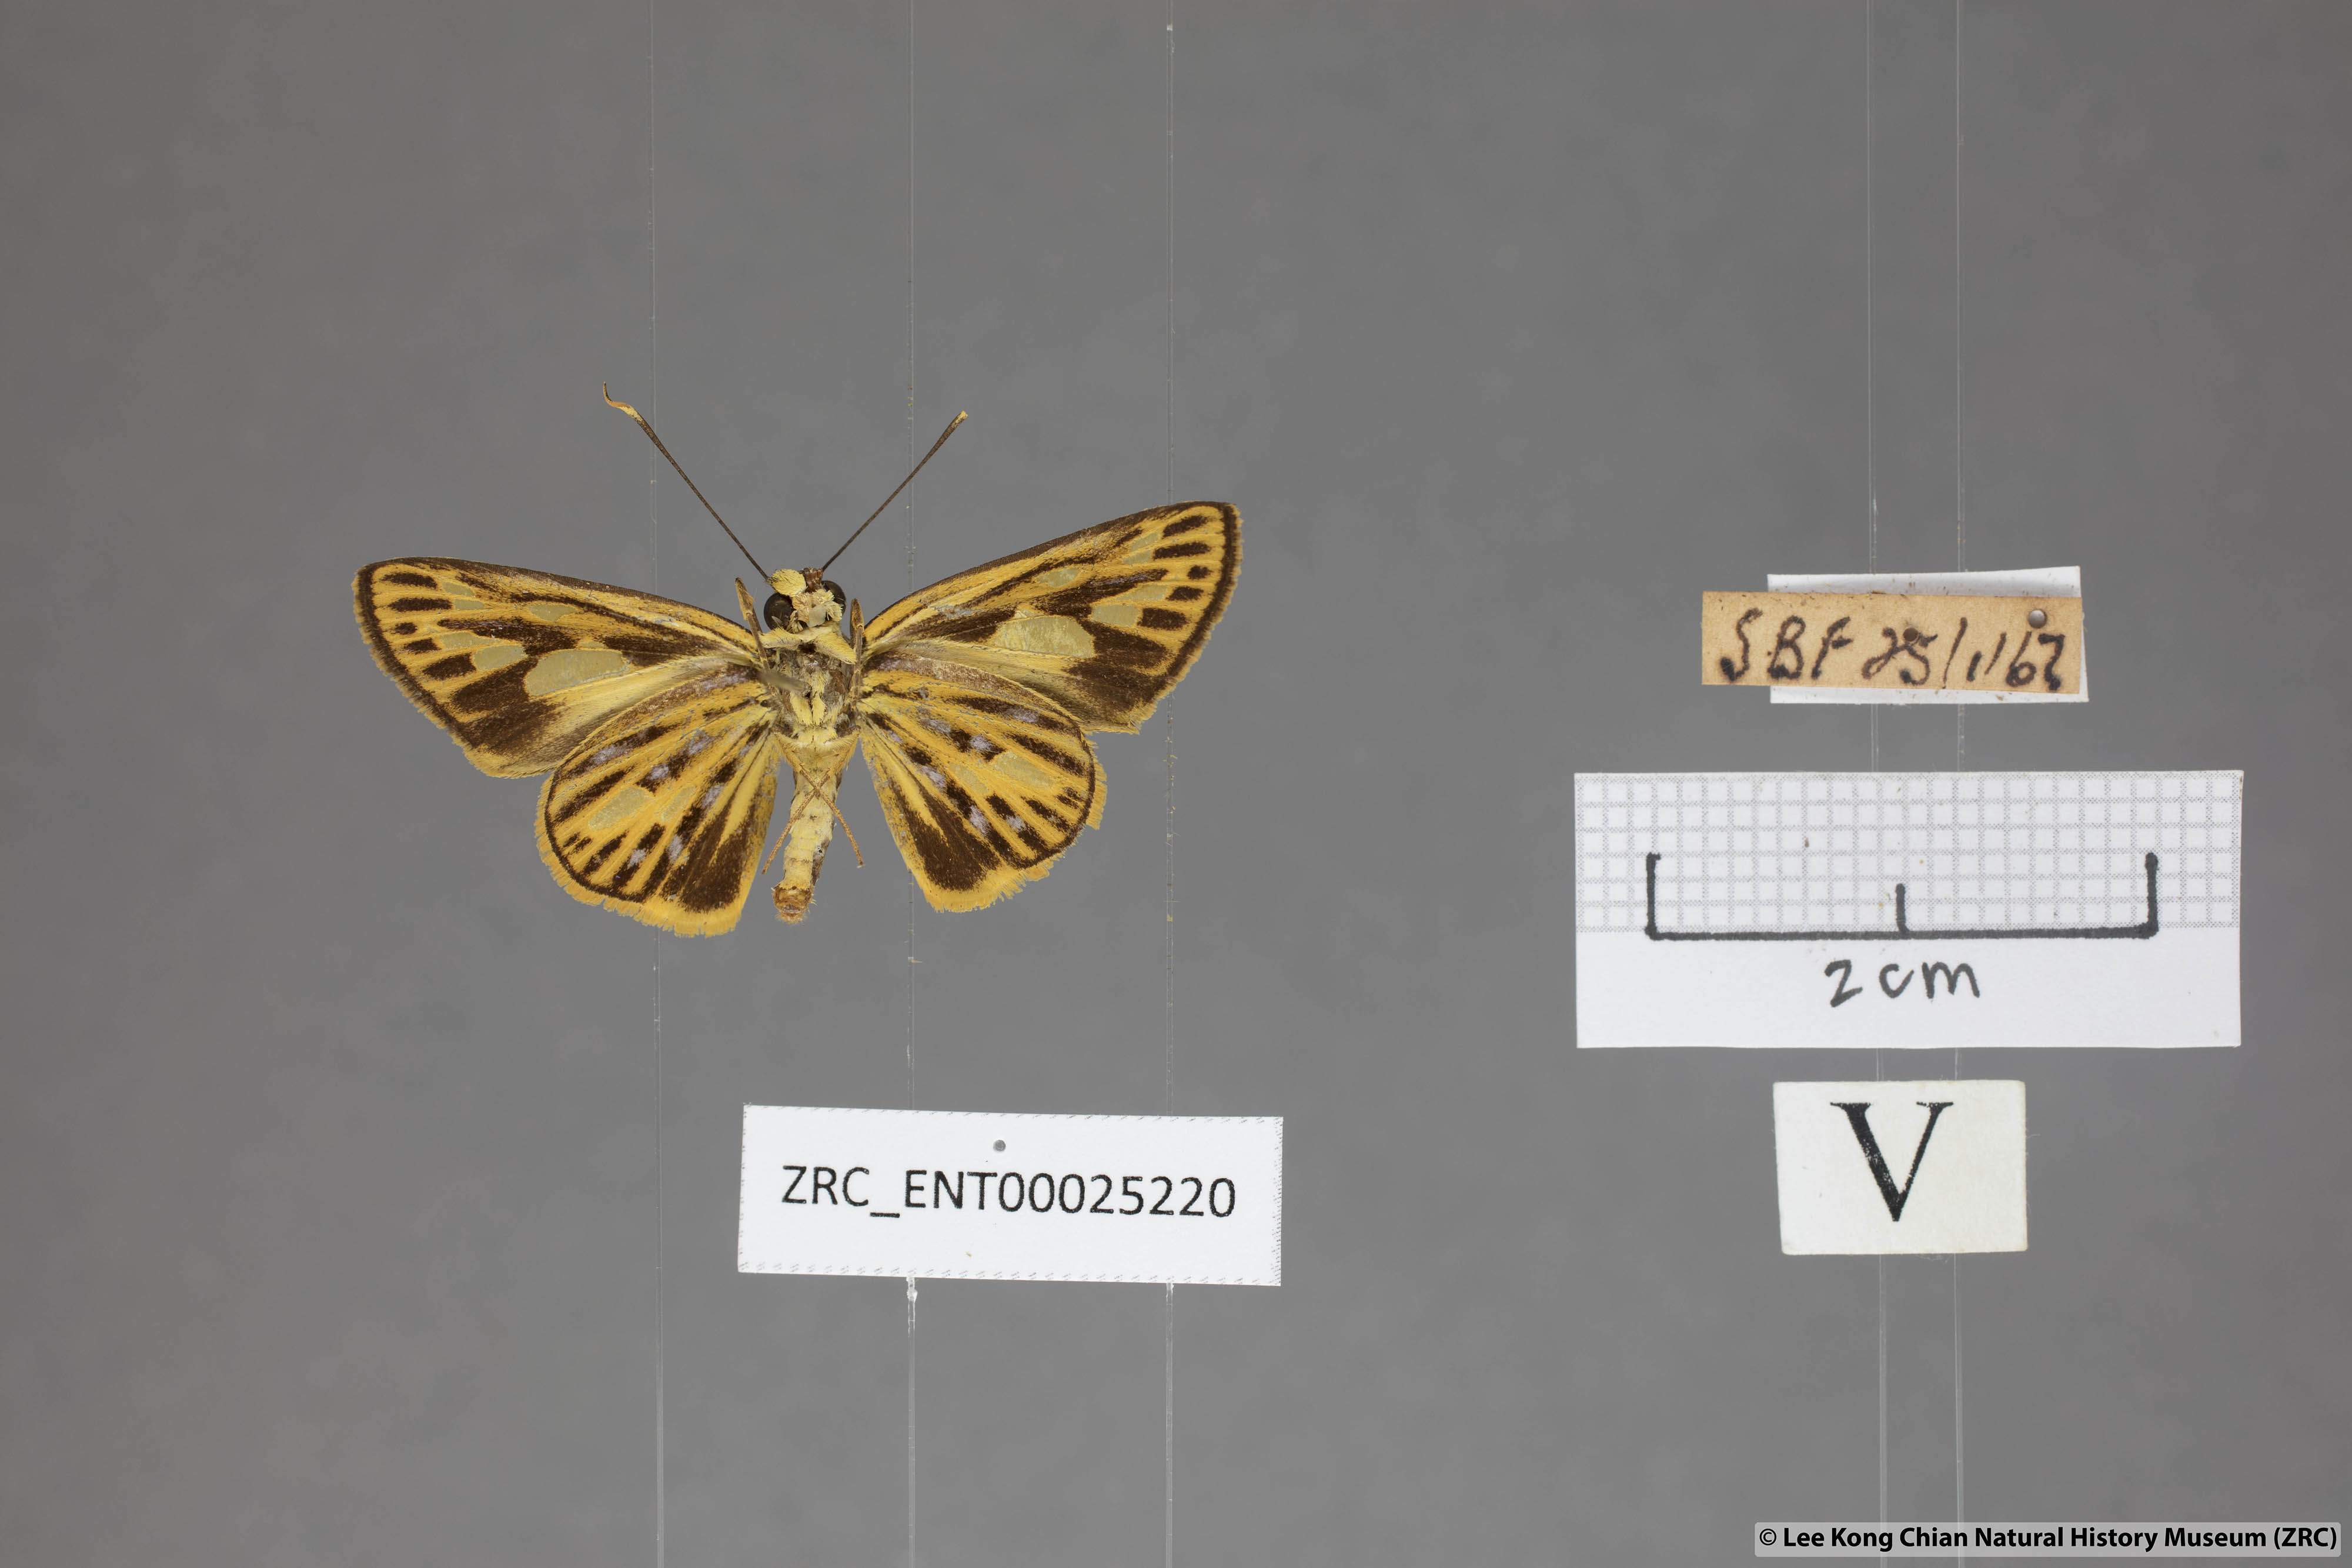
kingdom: Animalia
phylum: Arthropoda
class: Insecta
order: Lepidoptera
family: Hesperiidae
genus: Pyroneura
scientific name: Pyroneura flavia
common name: Lesser lancer
